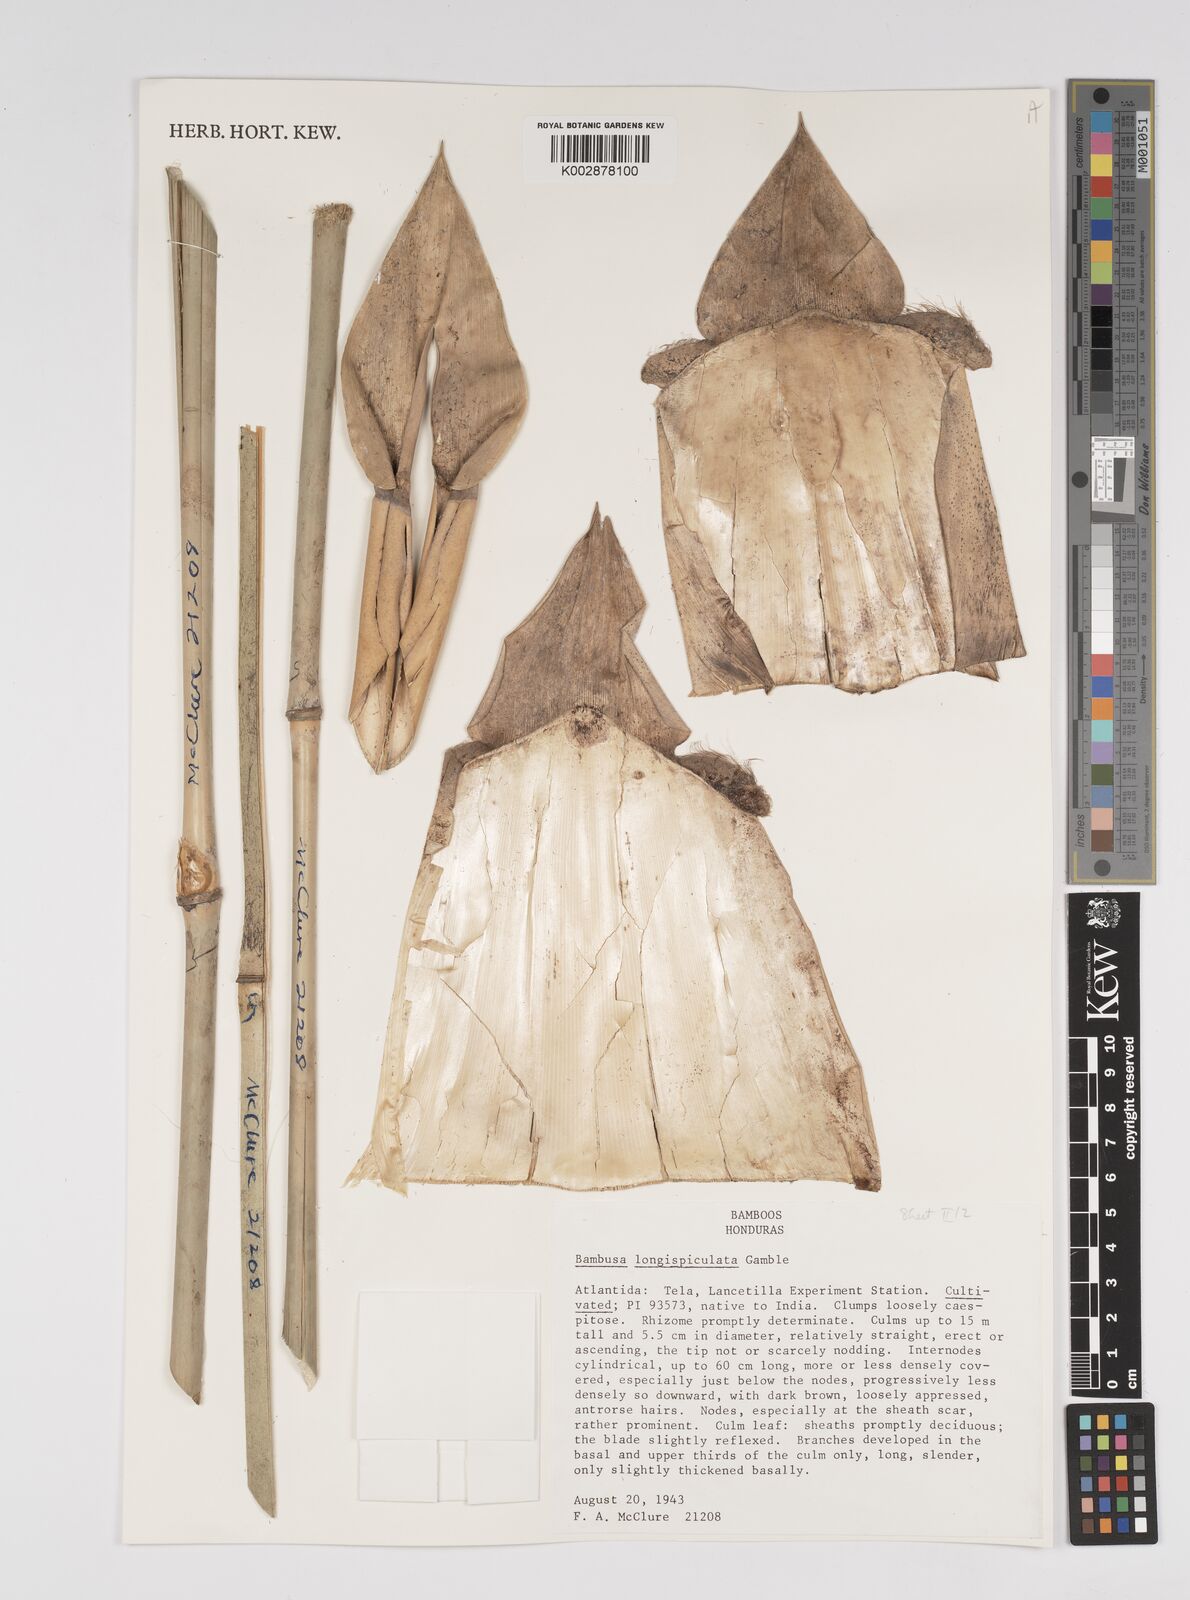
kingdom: Plantae
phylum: Tracheophyta
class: Liliopsida
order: Poales
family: Poaceae
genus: Bambusa
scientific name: Bambusa longispiculata
